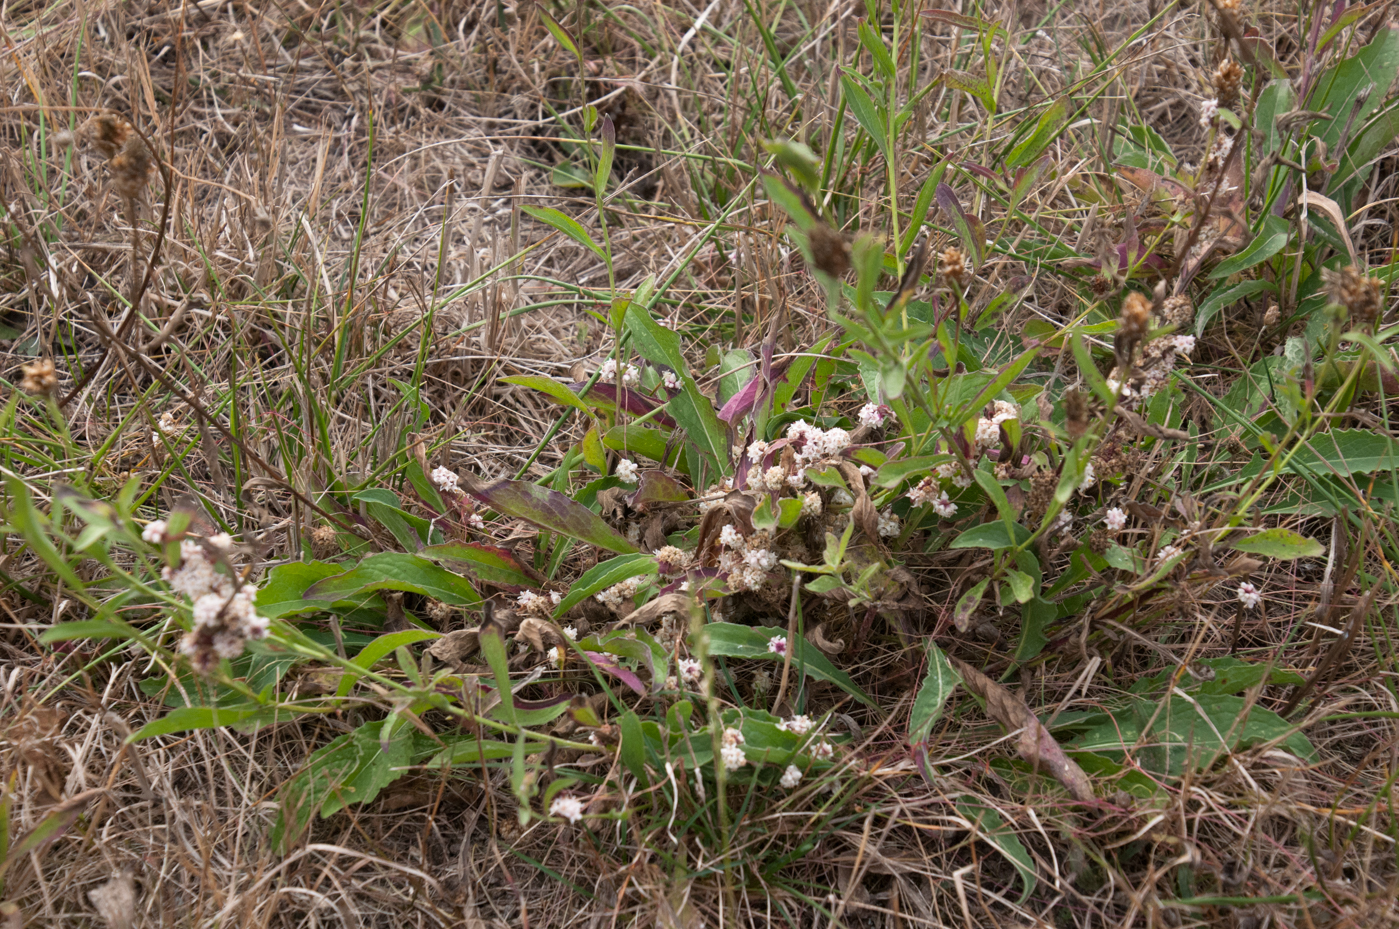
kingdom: Plantae
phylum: Tracheophyta
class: Magnoliopsida
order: Solanales
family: Convolvulaceae
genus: Cuscuta
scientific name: Cuscuta epithymum
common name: Clover dodder
